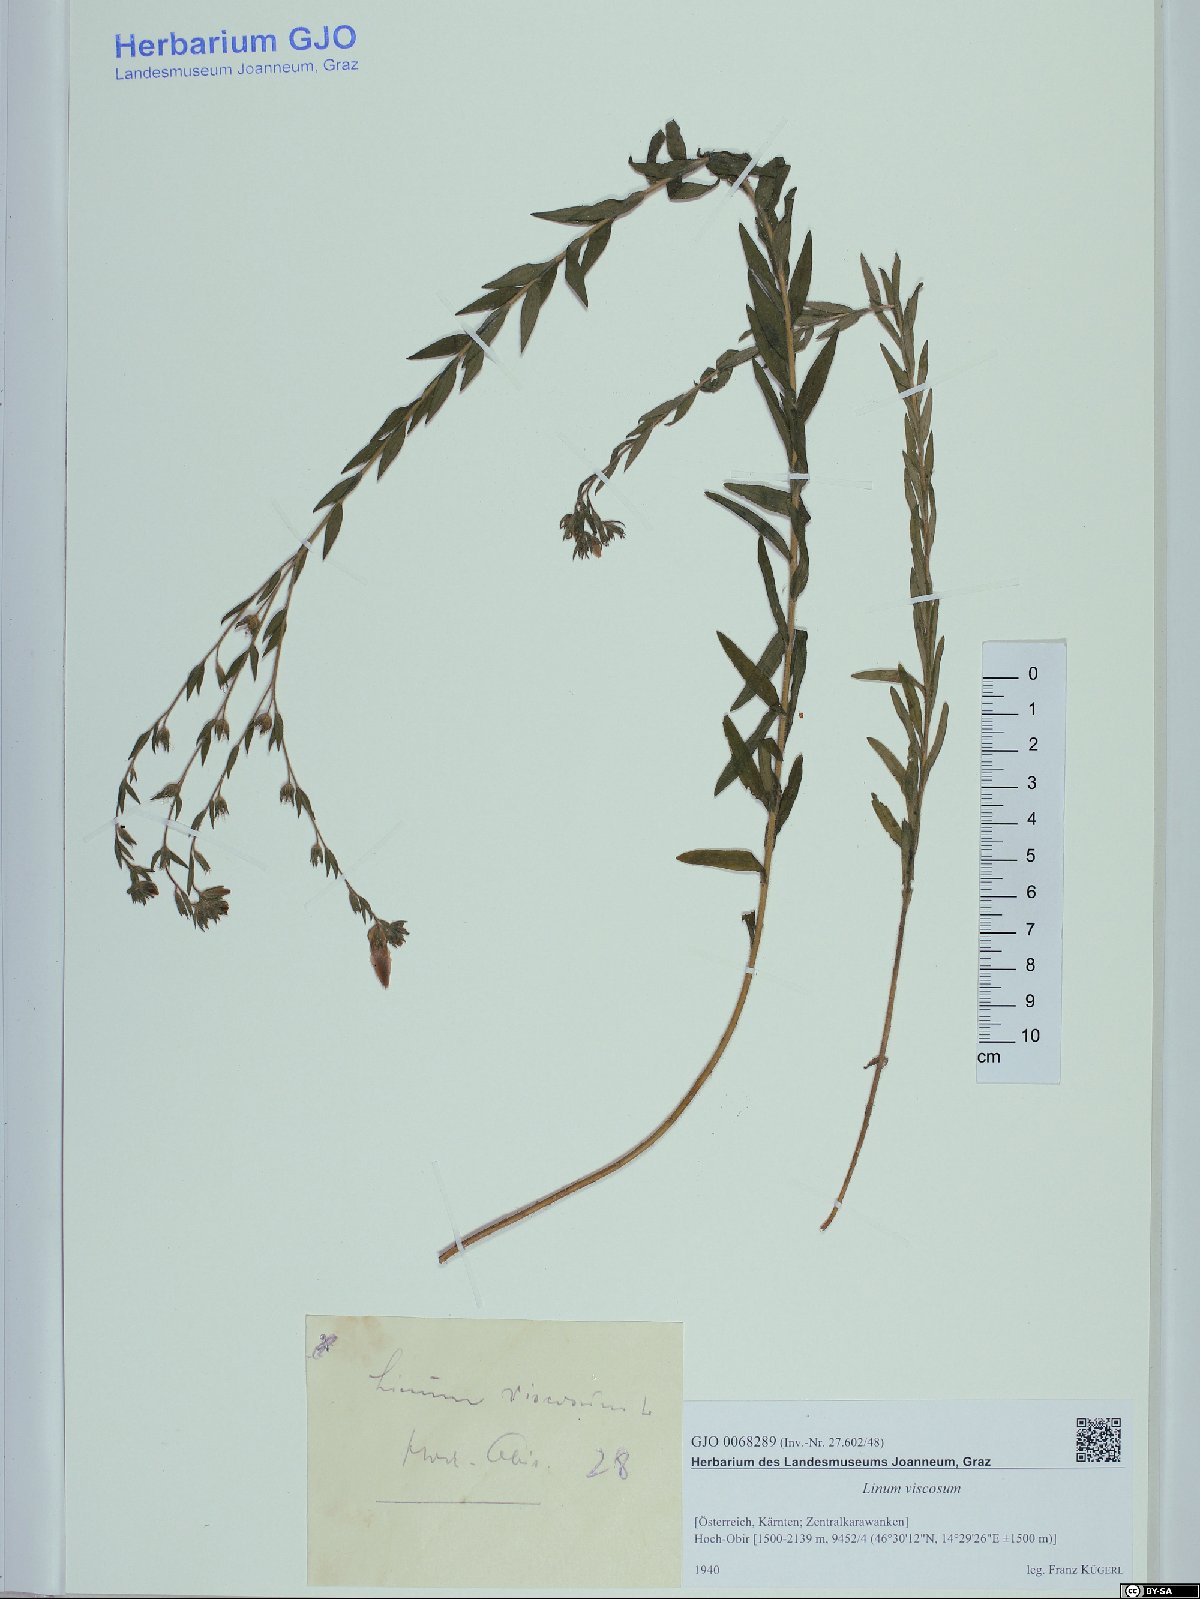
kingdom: Plantae
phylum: Tracheophyta
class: Magnoliopsida
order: Malpighiales
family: Linaceae
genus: Linum
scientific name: Linum viscosum
